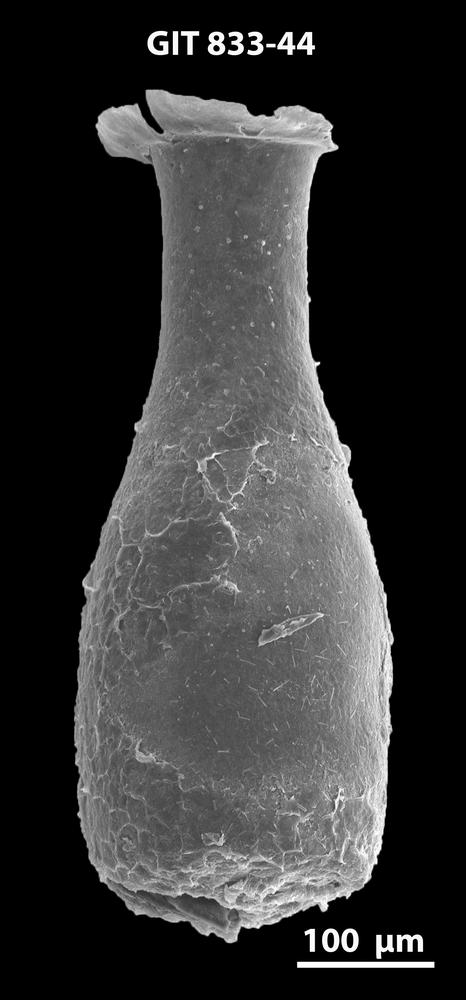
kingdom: Animalia
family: Lagenochitinidae
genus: Lagenochitina
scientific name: Lagenochitina megaesthonica
